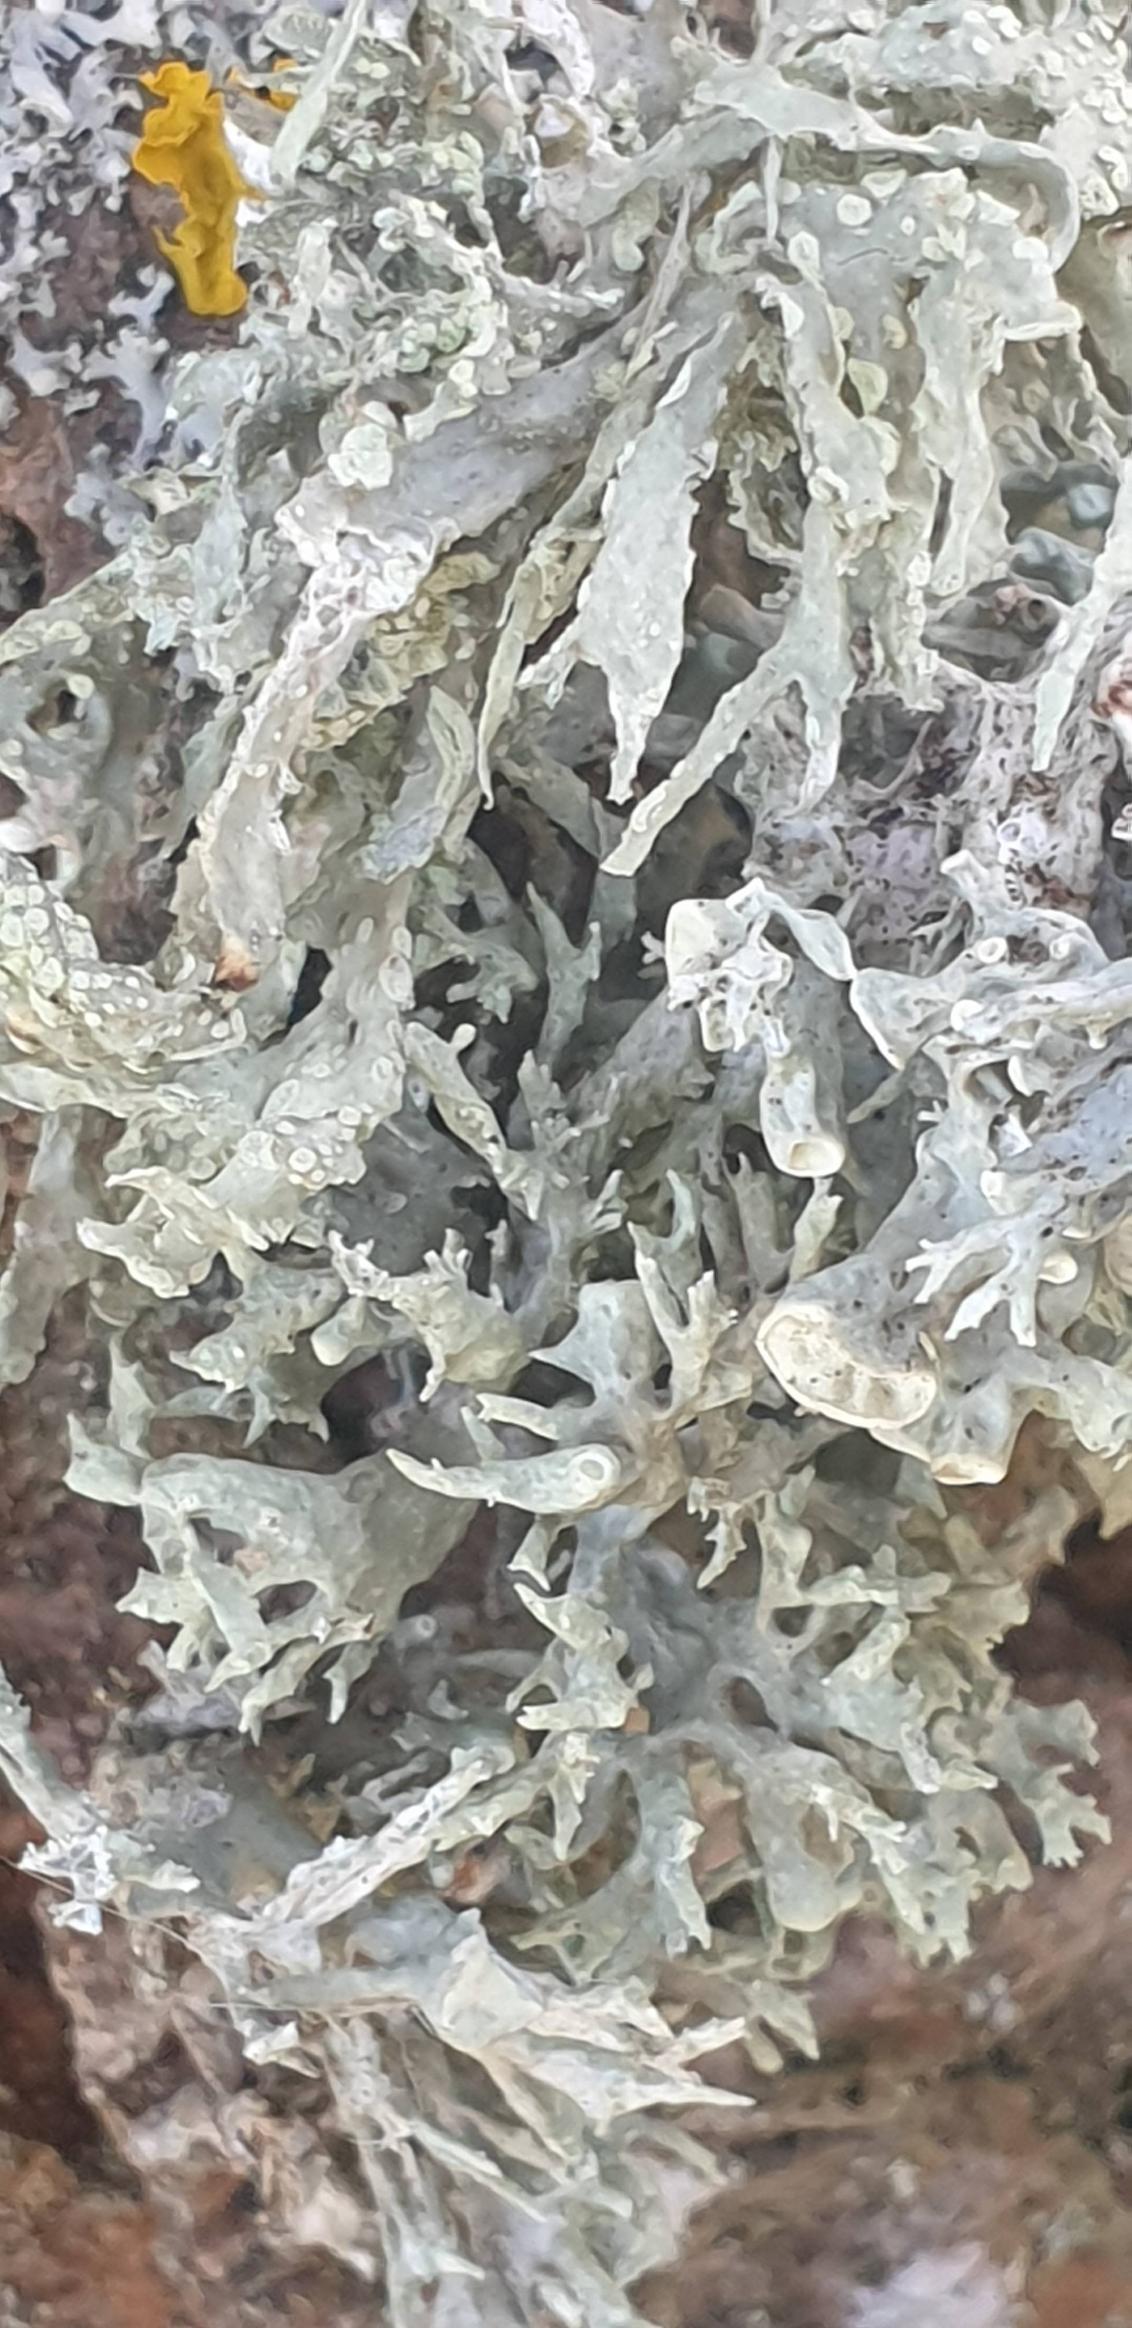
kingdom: Fungi
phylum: Ascomycota
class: Lecanoromycetes
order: Lecanorales
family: Ramalinaceae
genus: Ramalina
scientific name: Ramalina fastigiata
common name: Tue-grenlav
